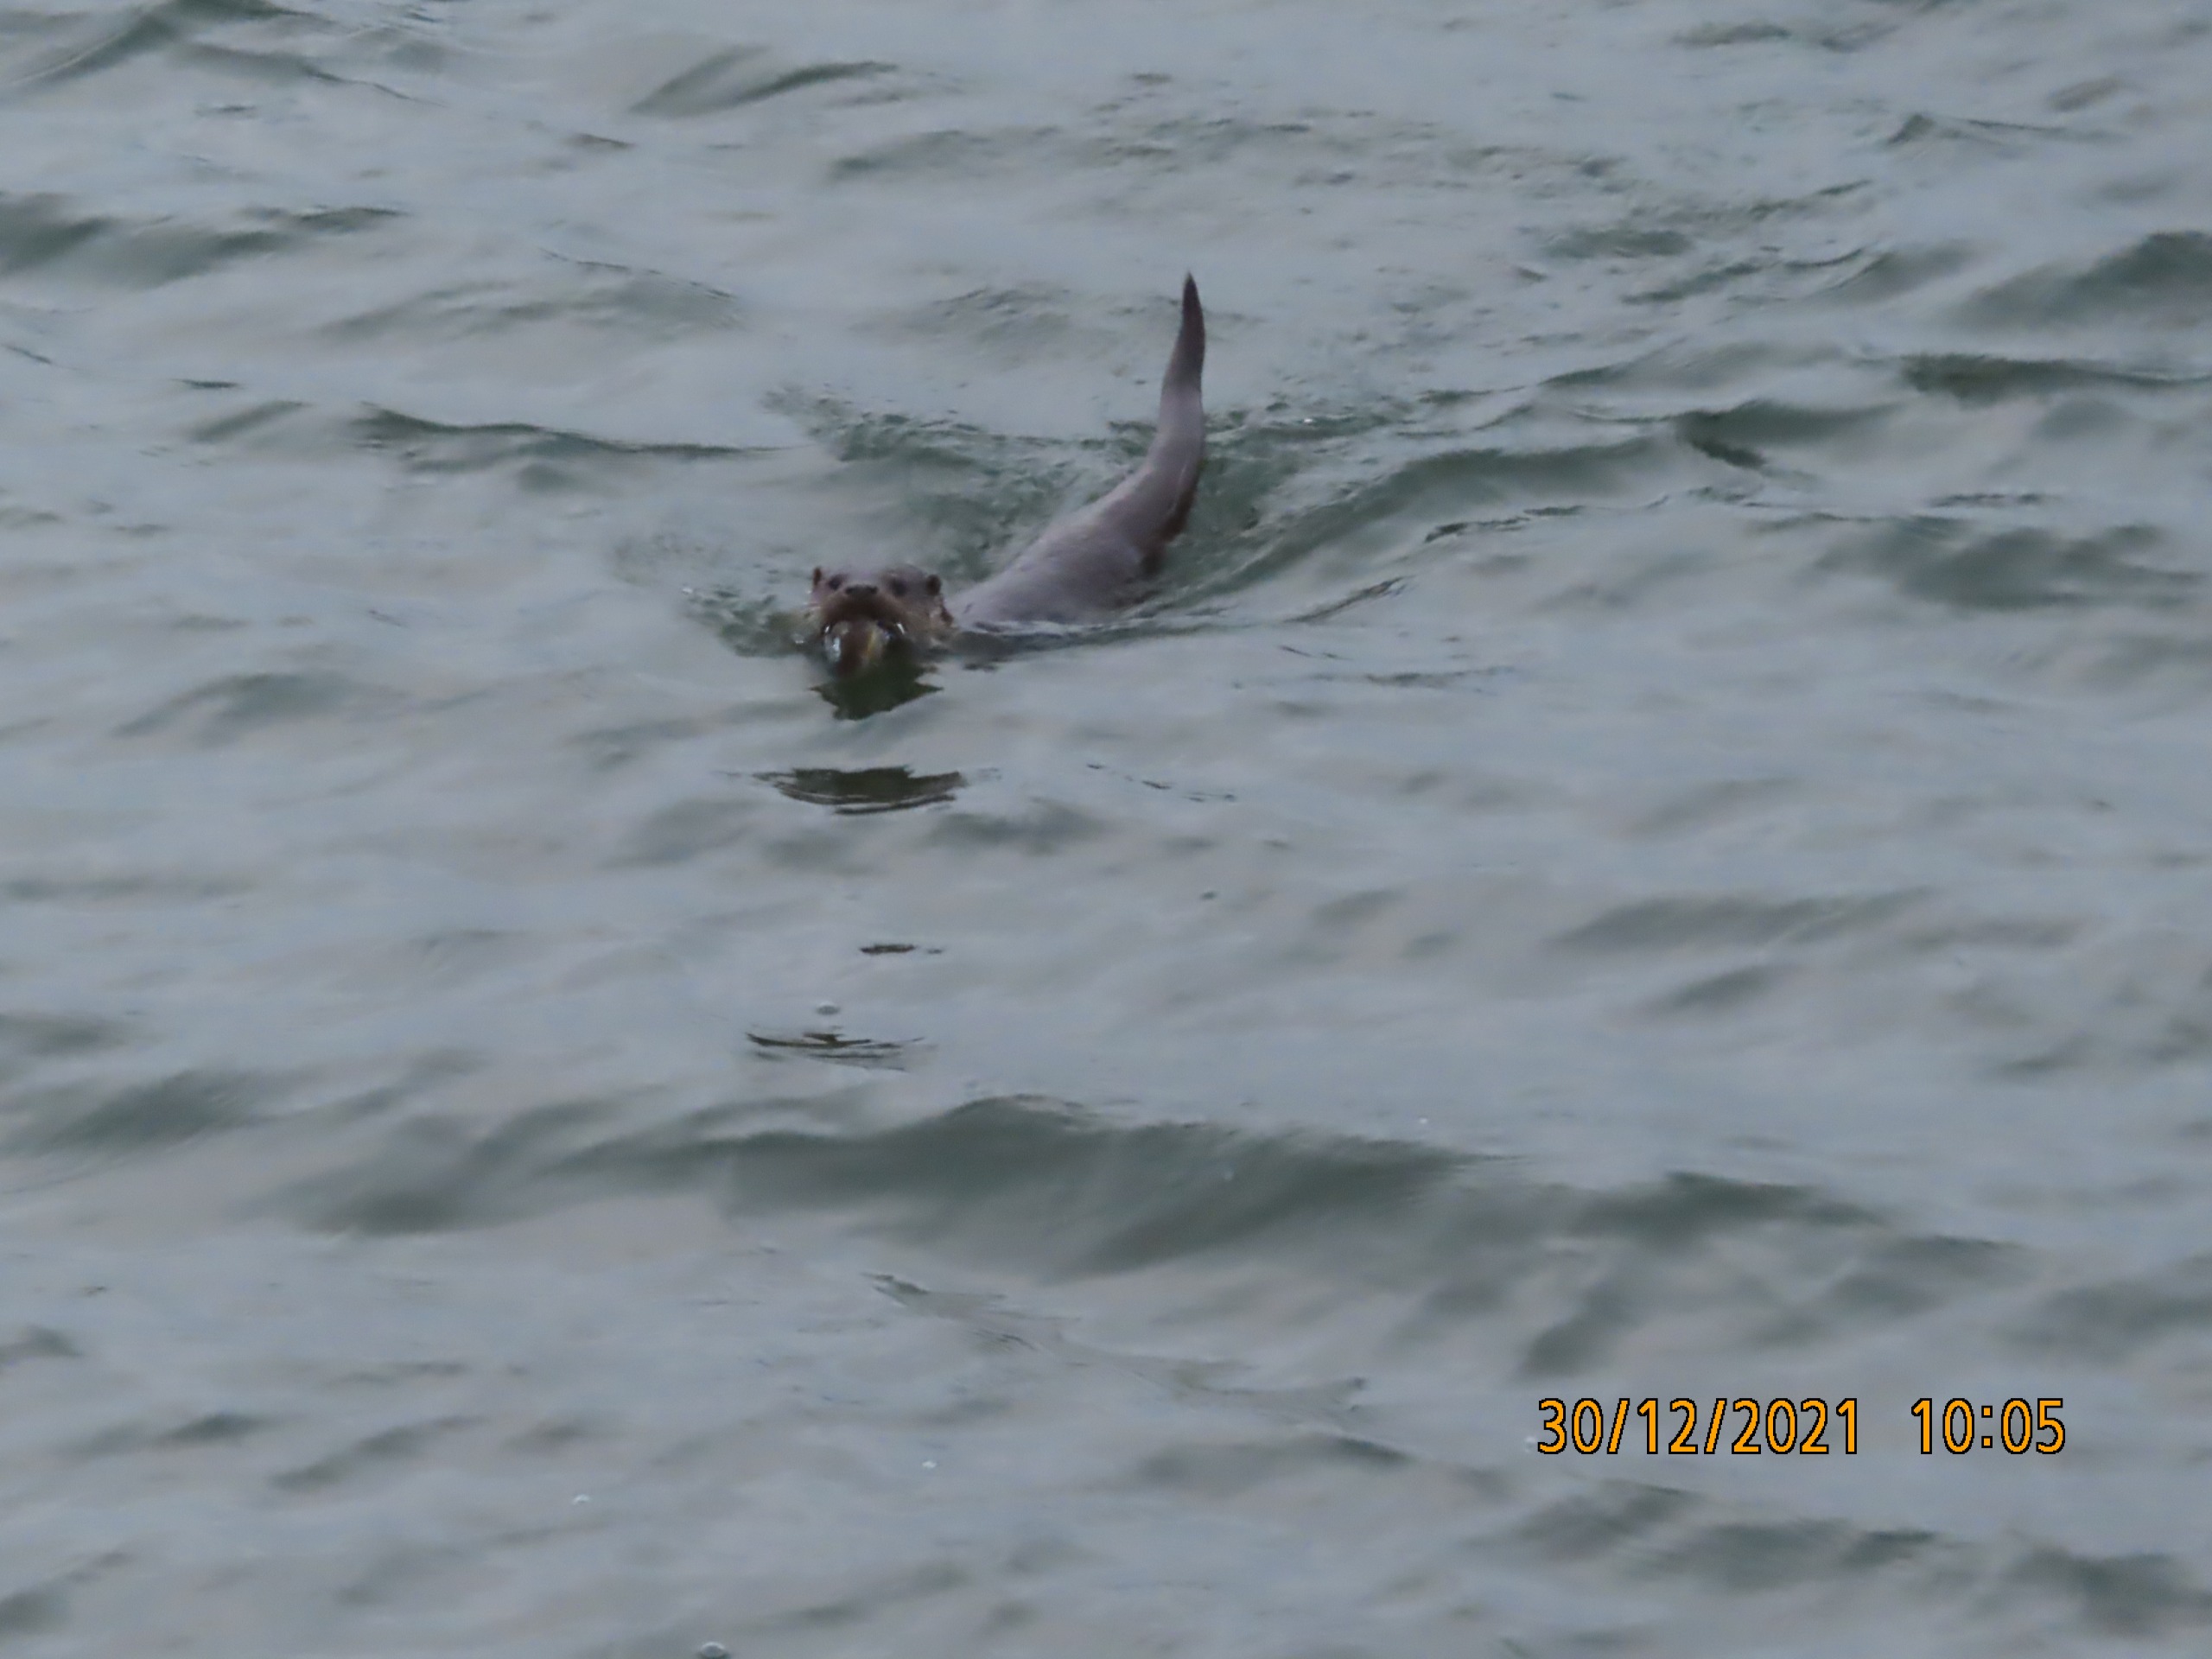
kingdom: Animalia
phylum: Chordata
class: Mammalia
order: Carnivora
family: Mustelidae
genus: Lutra
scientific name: Lutra lutra
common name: Odder
